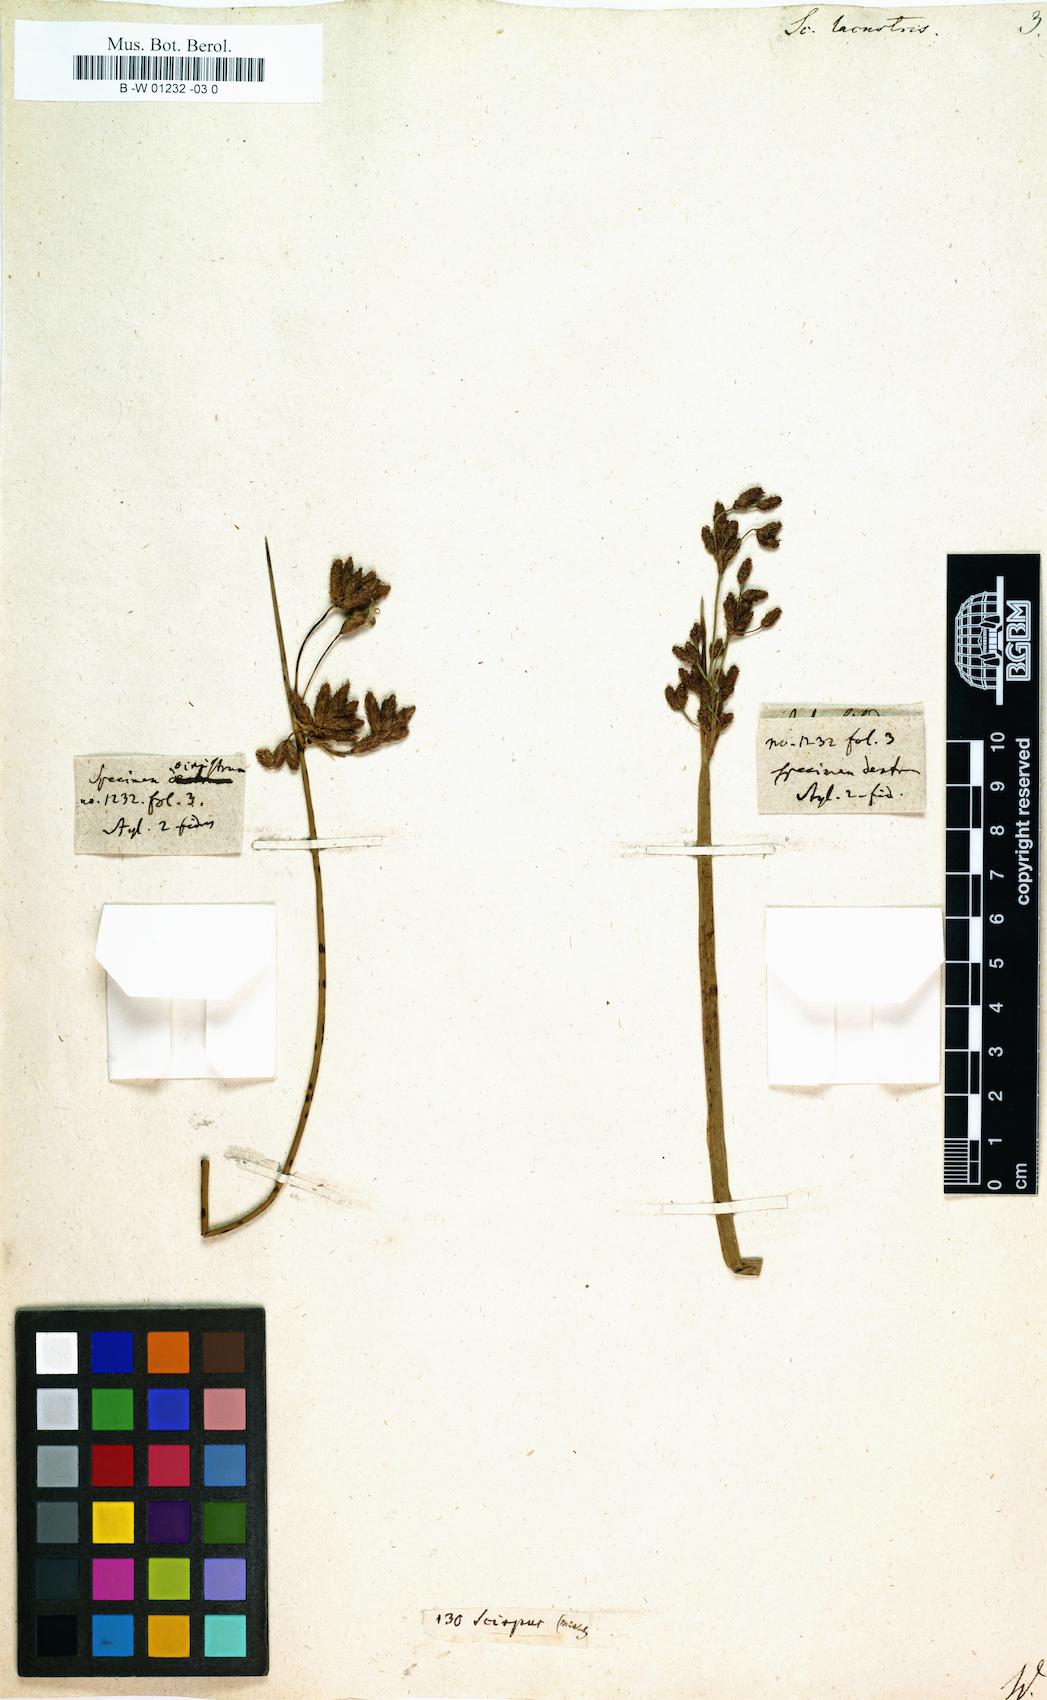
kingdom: Plantae
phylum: Tracheophyta
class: Liliopsida
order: Poales
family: Cyperaceae
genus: Schoenoplectus
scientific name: Schoenoplectus lacustris
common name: Common club-rush
